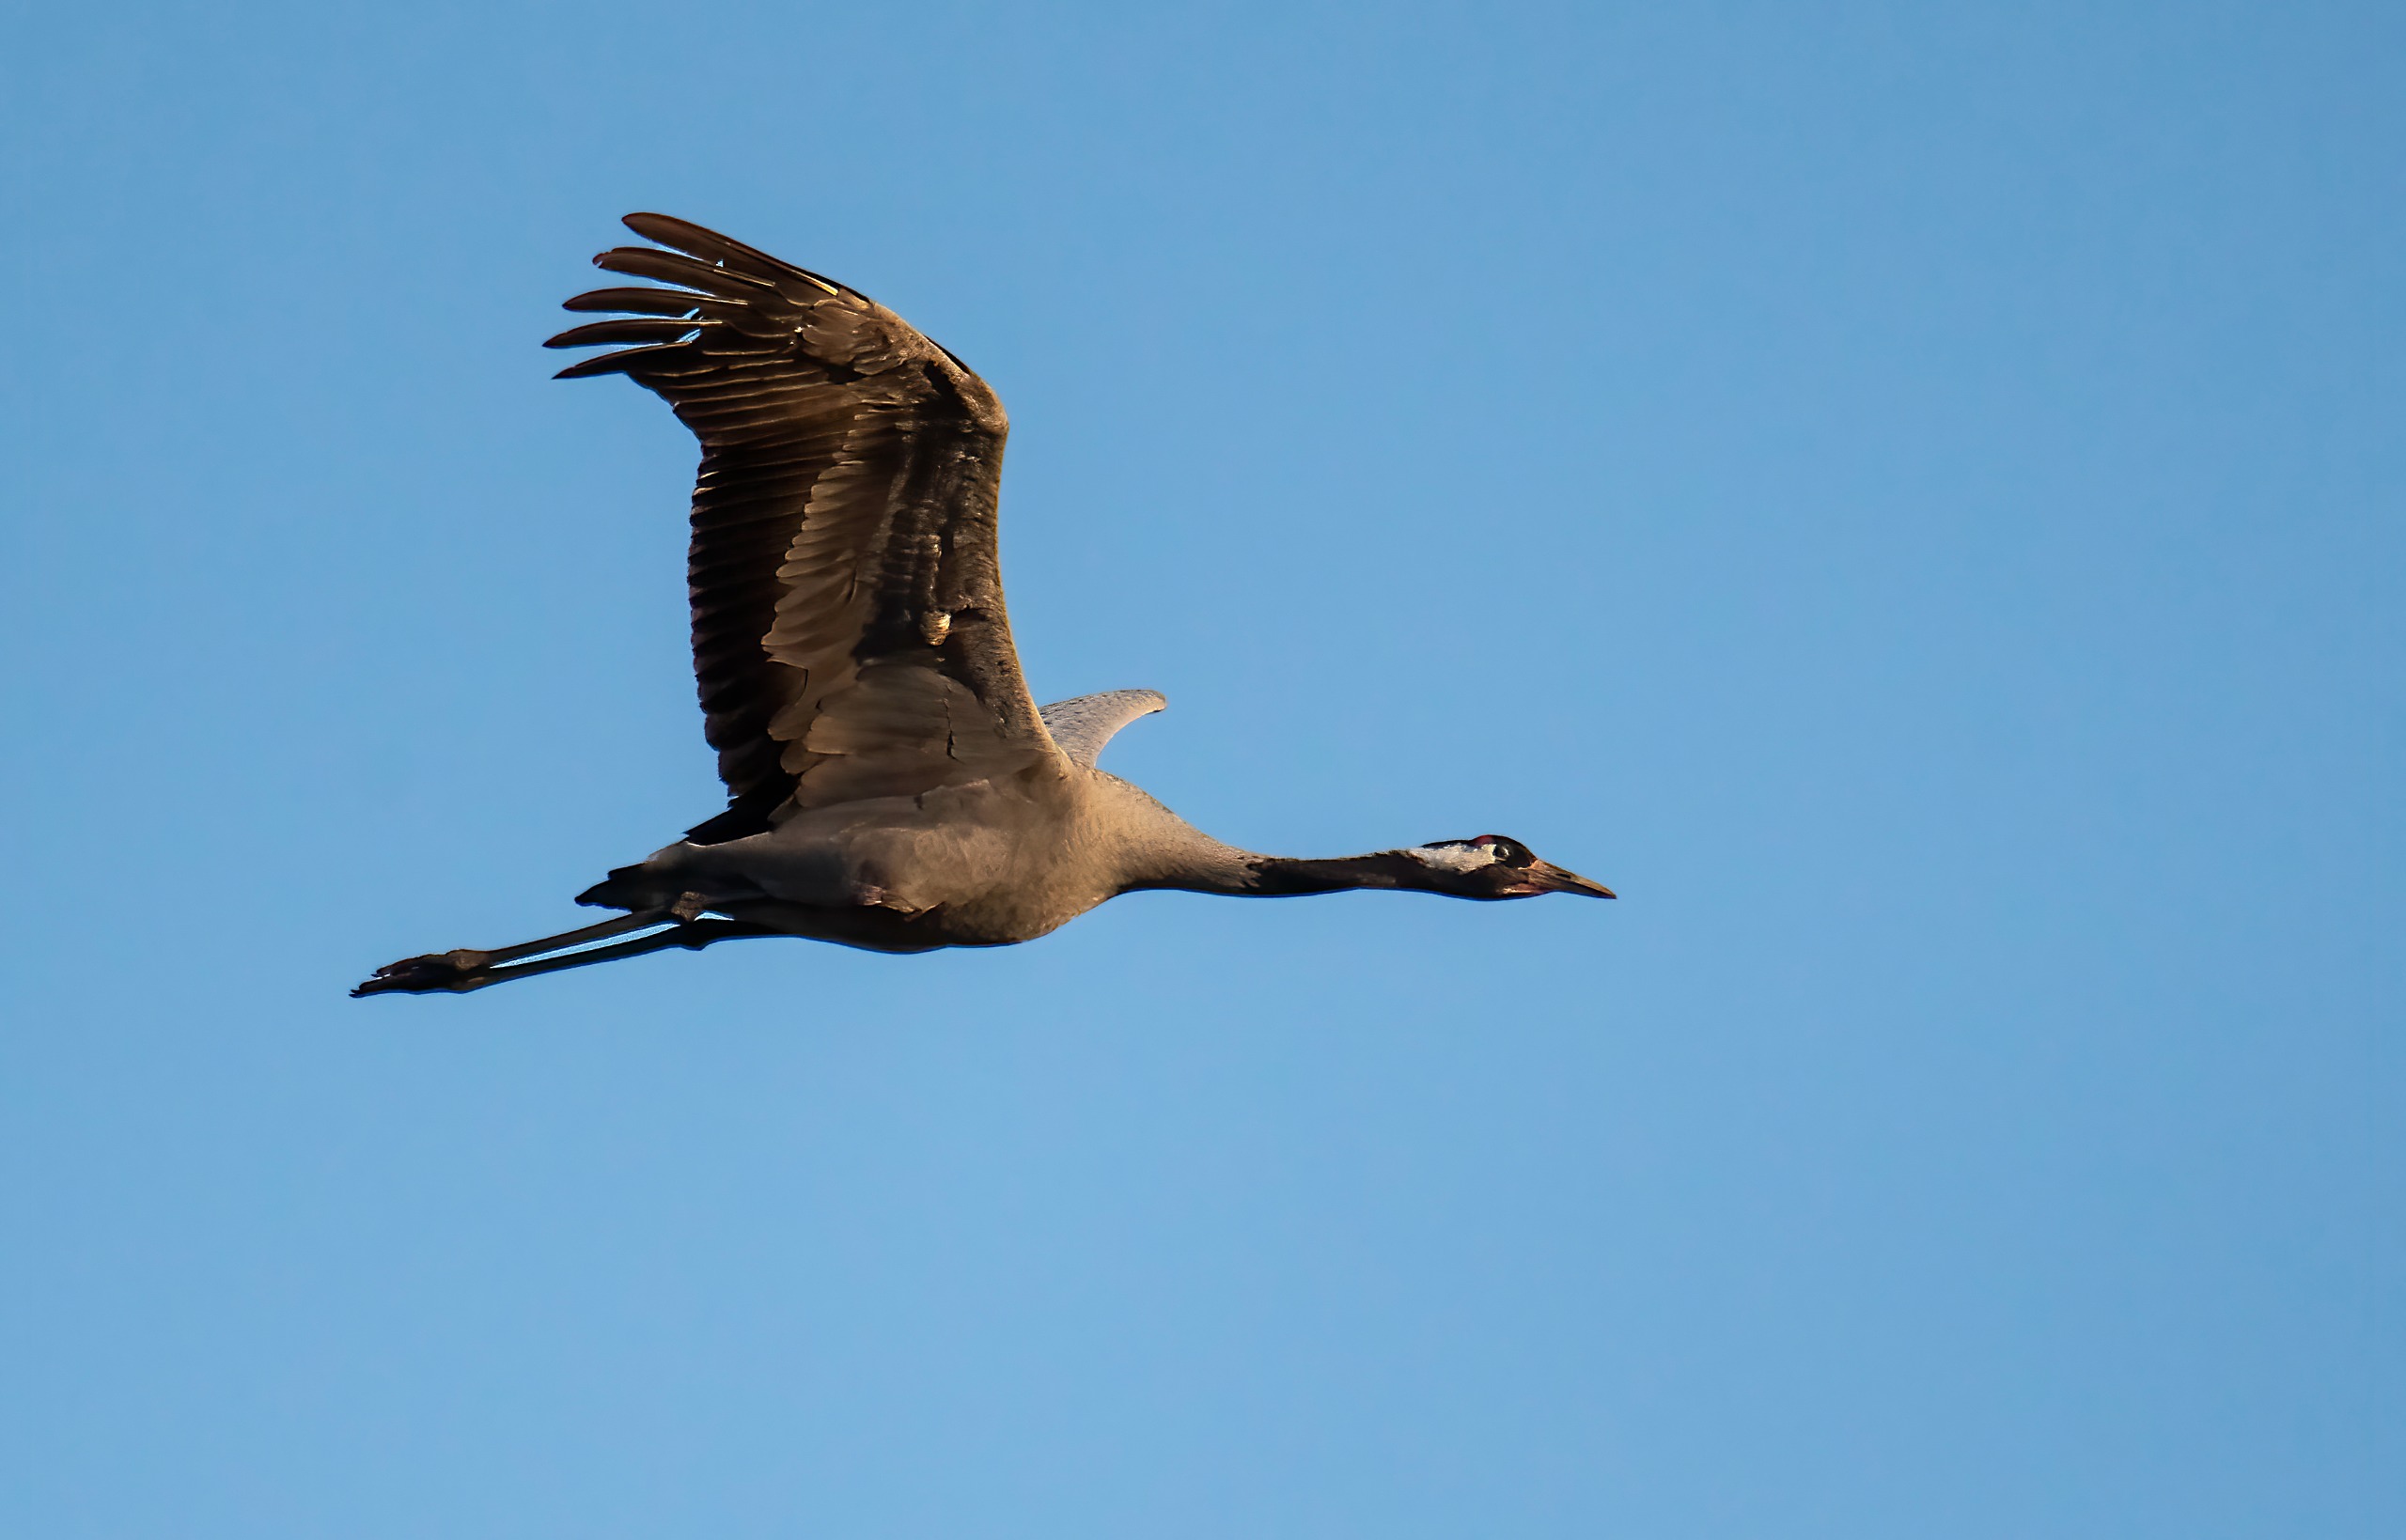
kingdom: Animalia
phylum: Chordata
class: Aves
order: Gruiformes
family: Gruidae
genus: Grus
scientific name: Grus grus
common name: Trane
